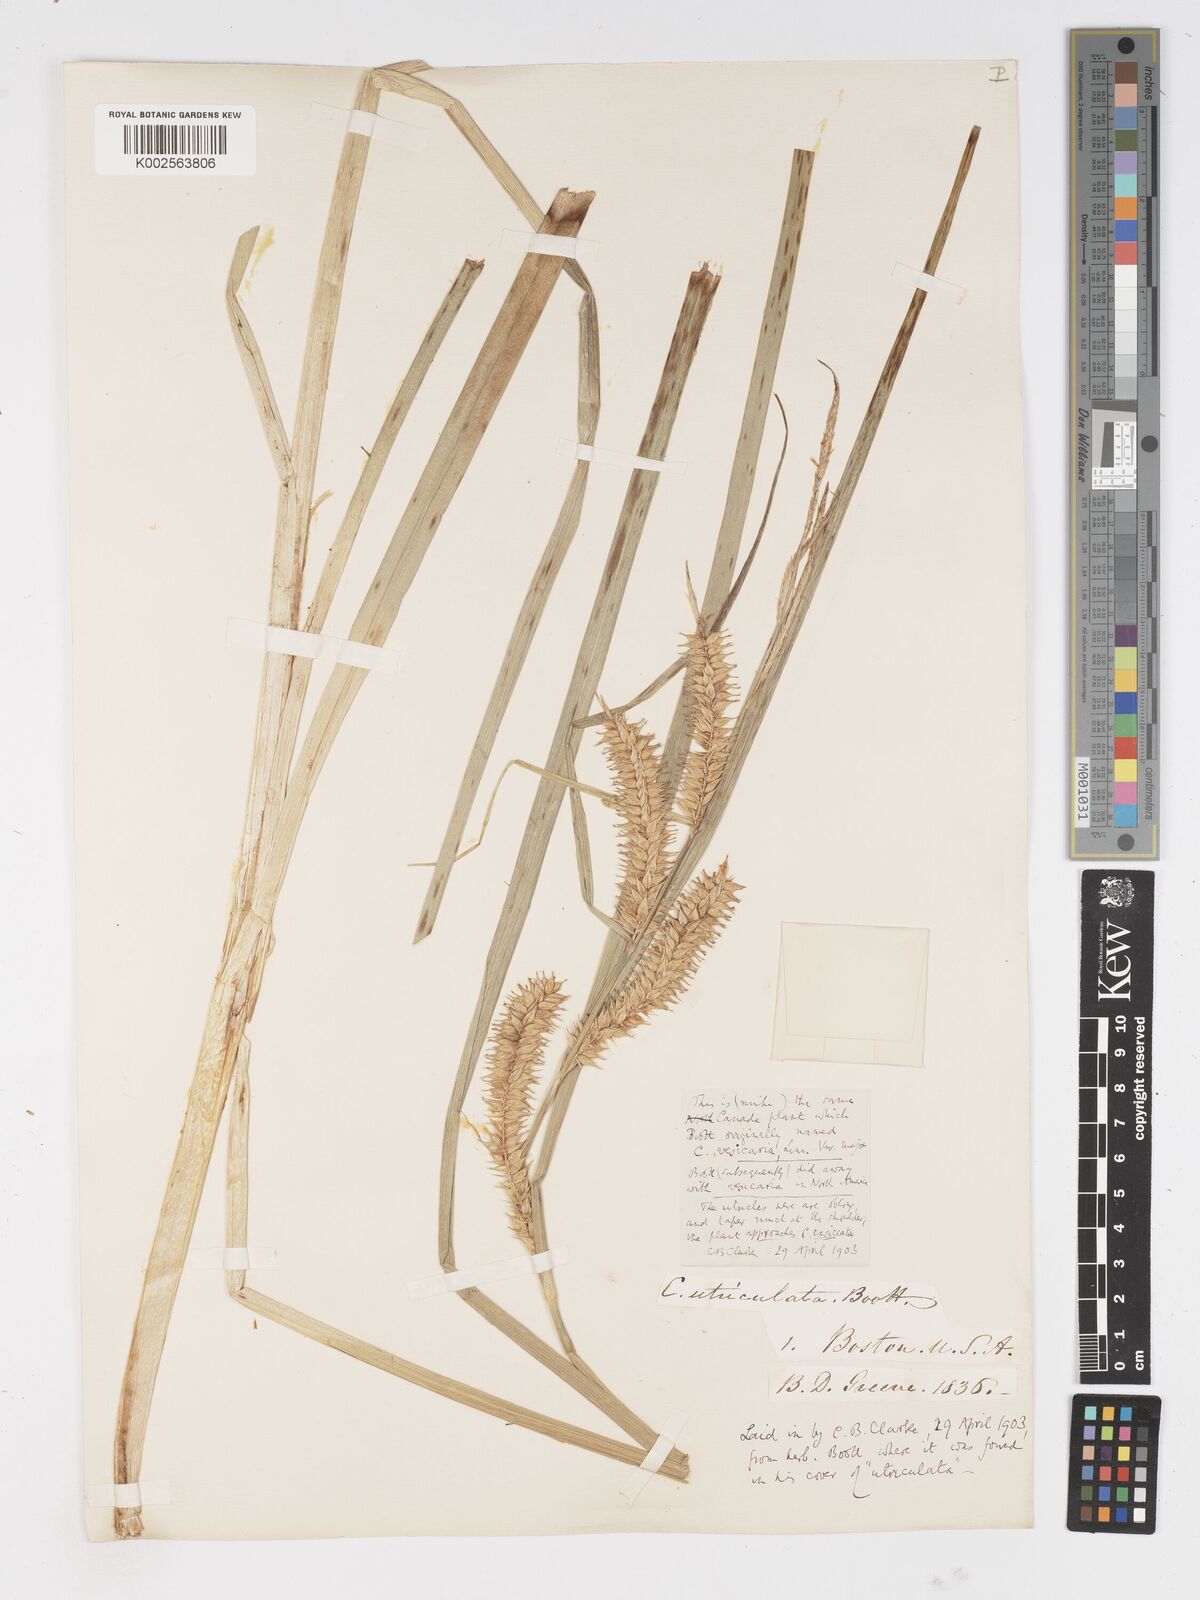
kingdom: Plantae
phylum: Tracheophyta
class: Liliopsida
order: Poales
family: Cyperaceae
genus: Carex
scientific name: Carex exsiccata
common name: Beaked sedge
